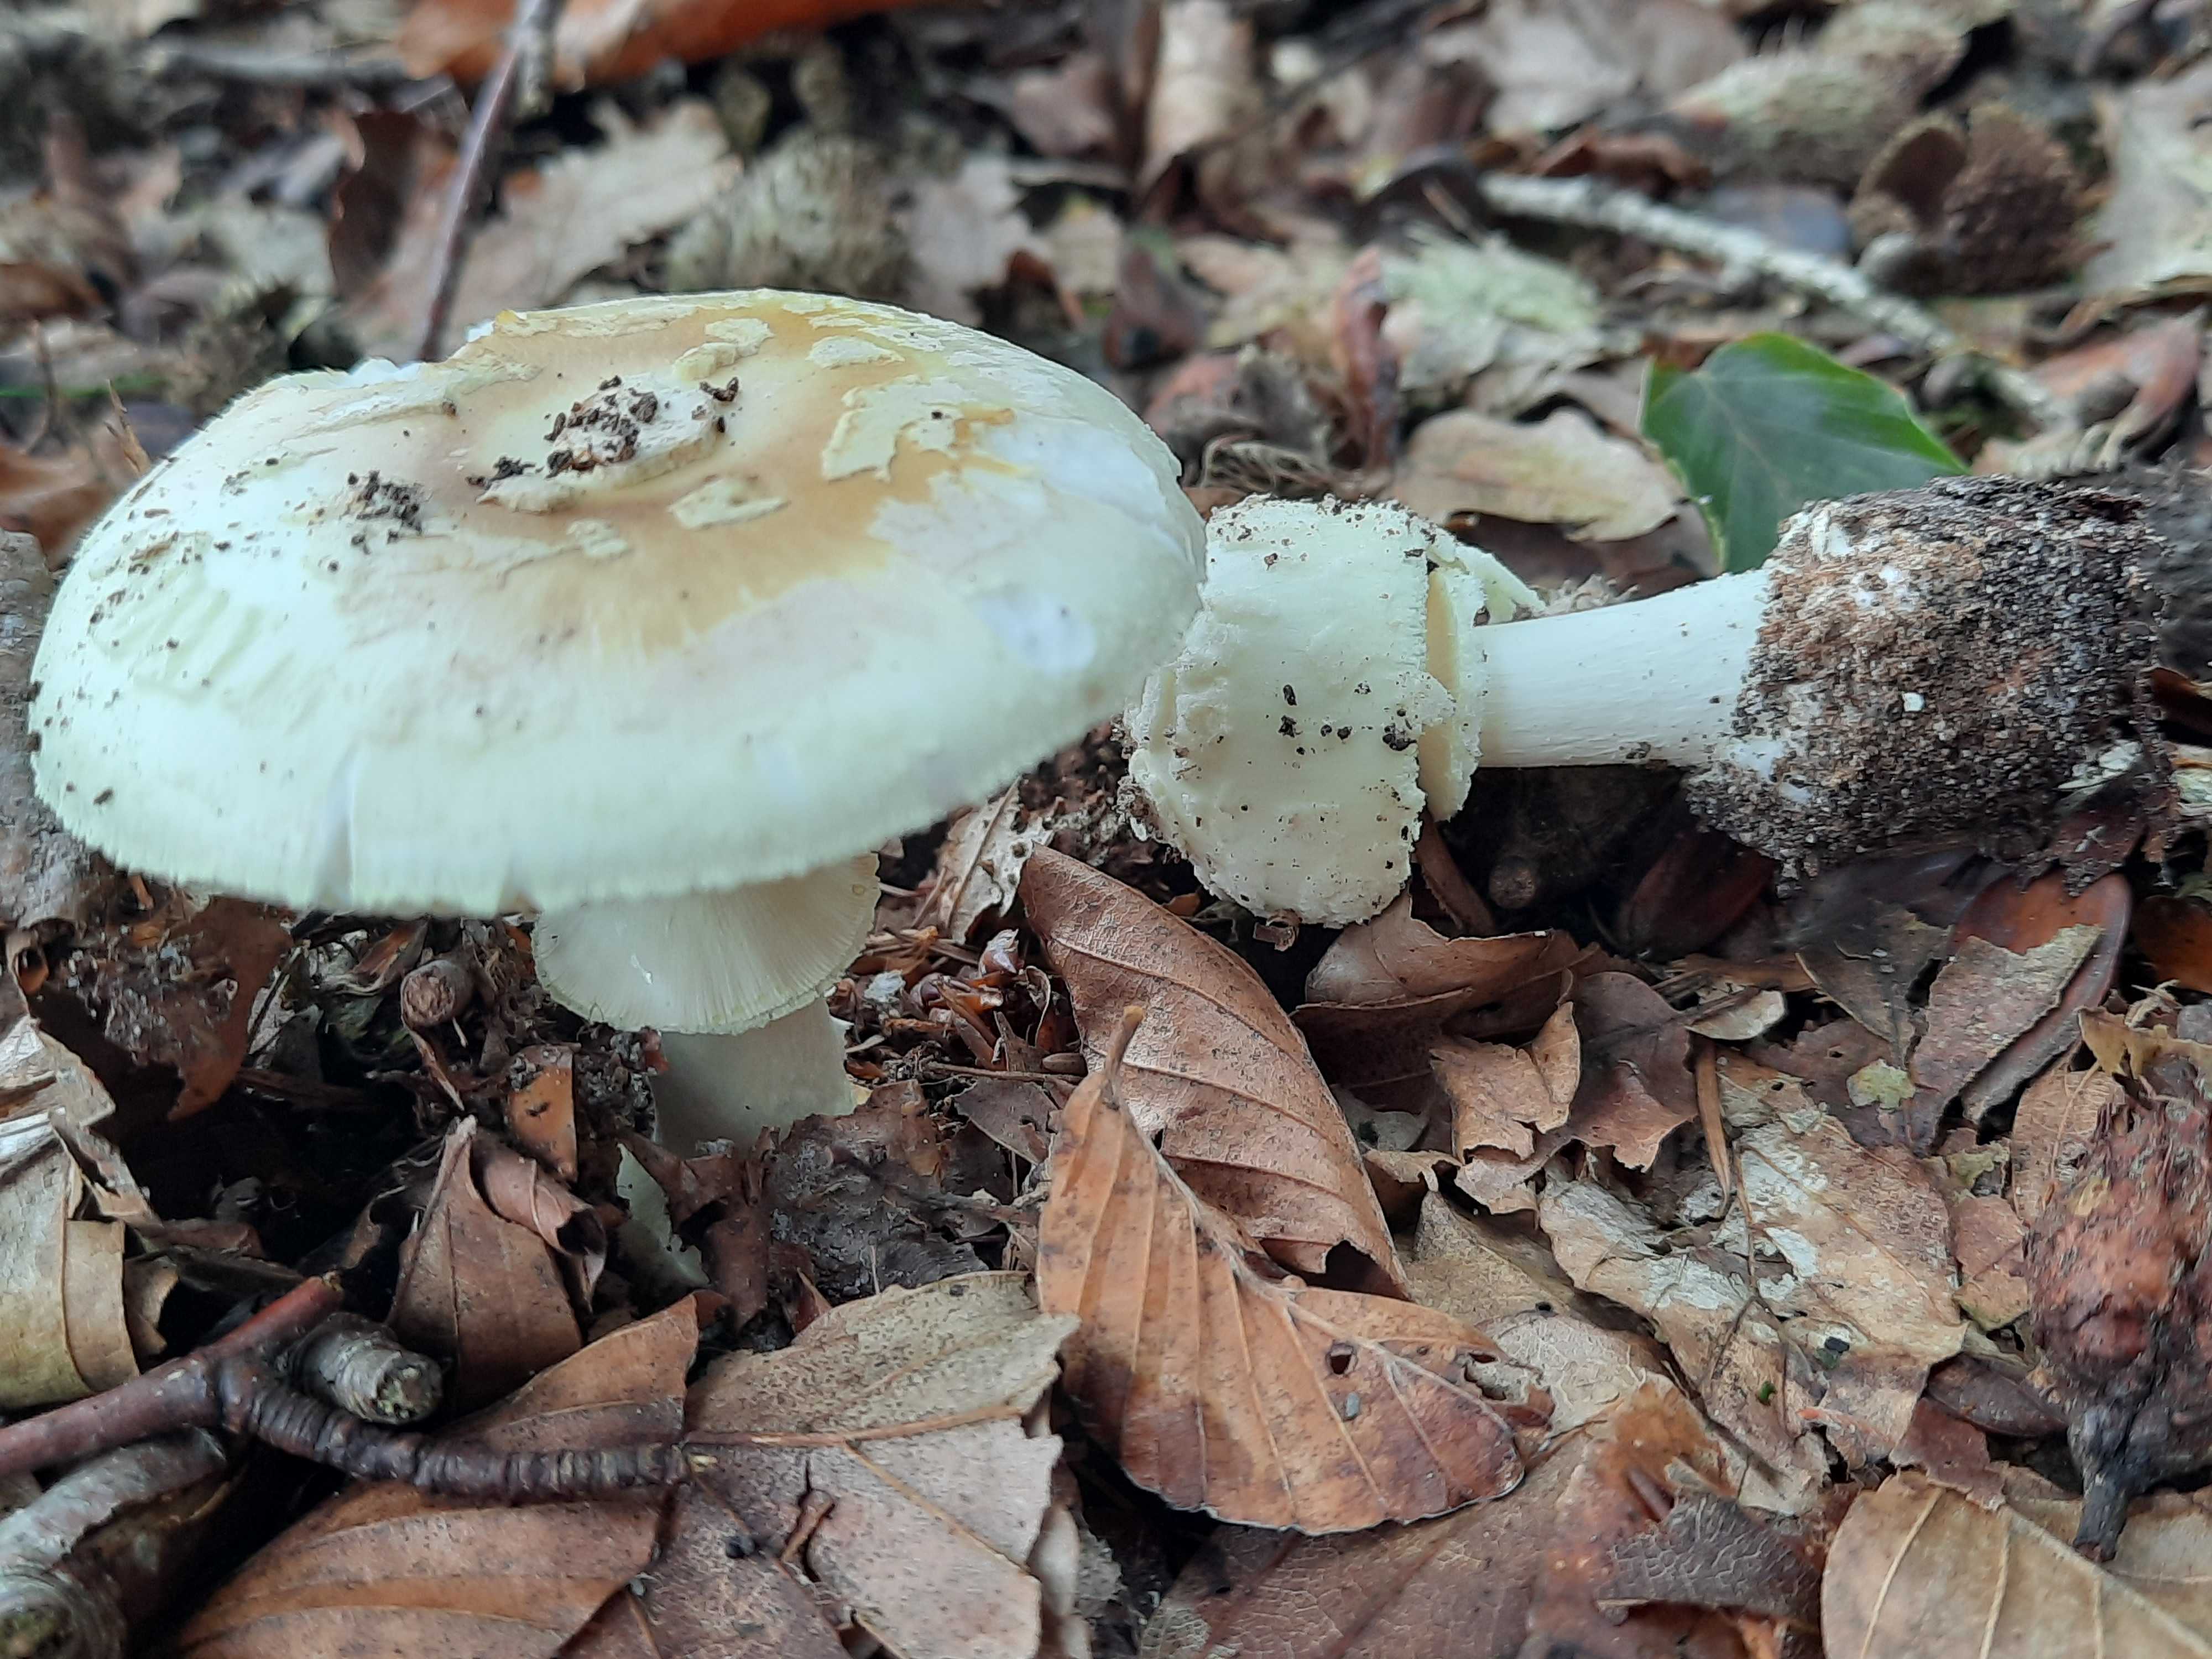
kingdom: Fungi
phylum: Basidiomycota
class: Agaricomycetes
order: Agaricales
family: Amanitaceae
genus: Amanita
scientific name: Amanita citrina
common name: kugleknoldet fluesvamp
